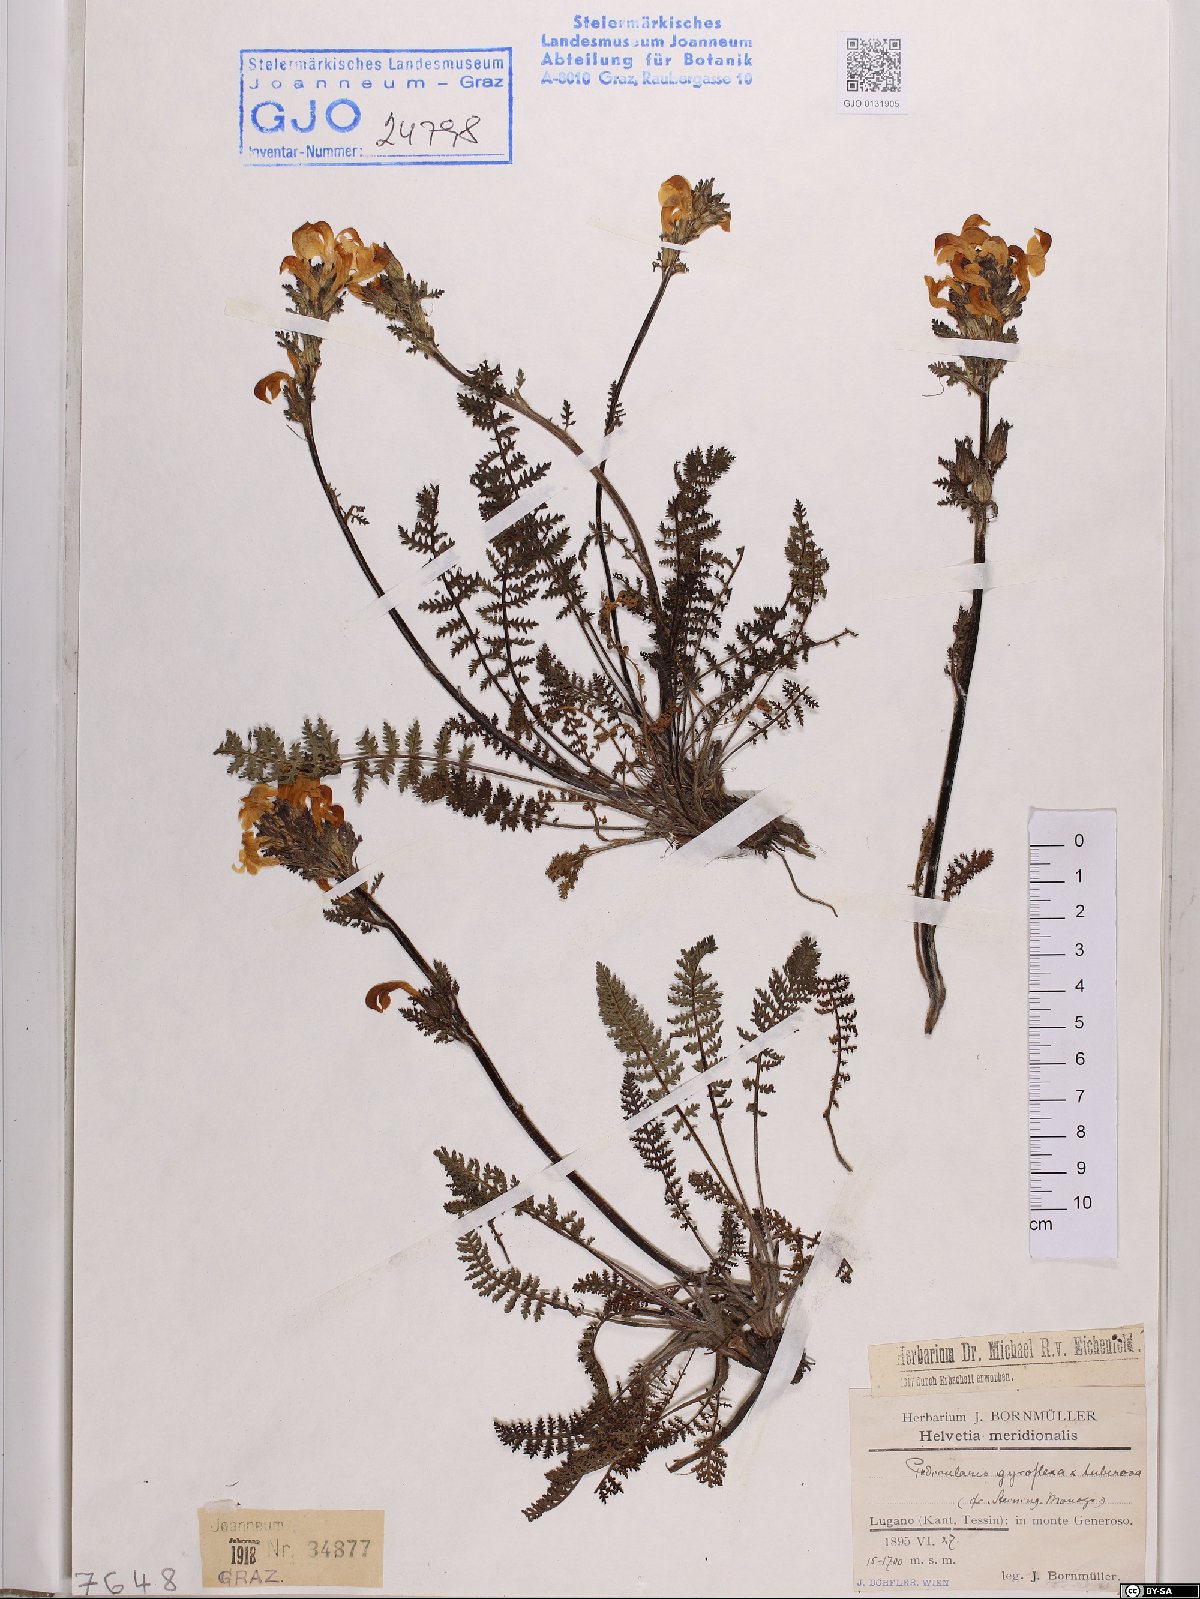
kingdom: Plantae
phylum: Tracheophyta
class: Magnoliopsida
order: Lamiales
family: Orobanchaceae
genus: Pedicularis
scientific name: Pedicularis verlotii
